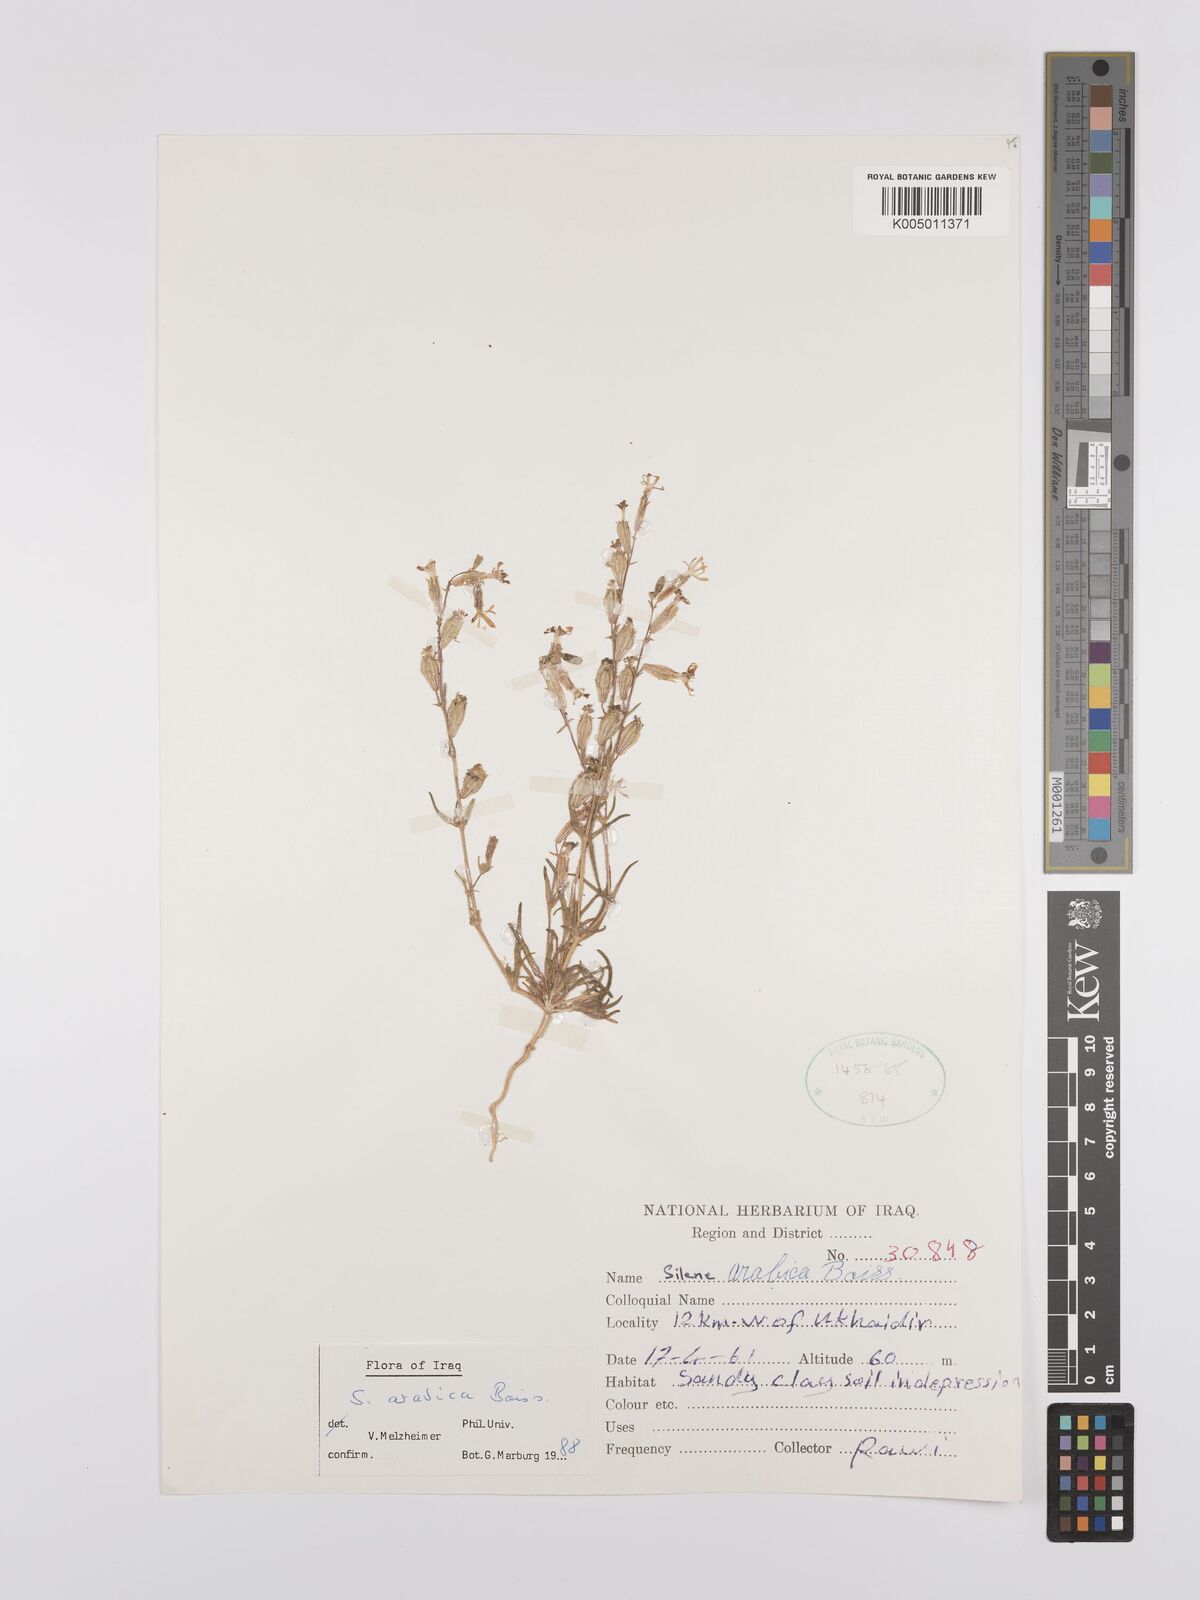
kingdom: Plantae
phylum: Tracheophyta
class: Magnoliopsida
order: Caryophyllales
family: Caryophyllaceae
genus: Silene
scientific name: Silene arabica
